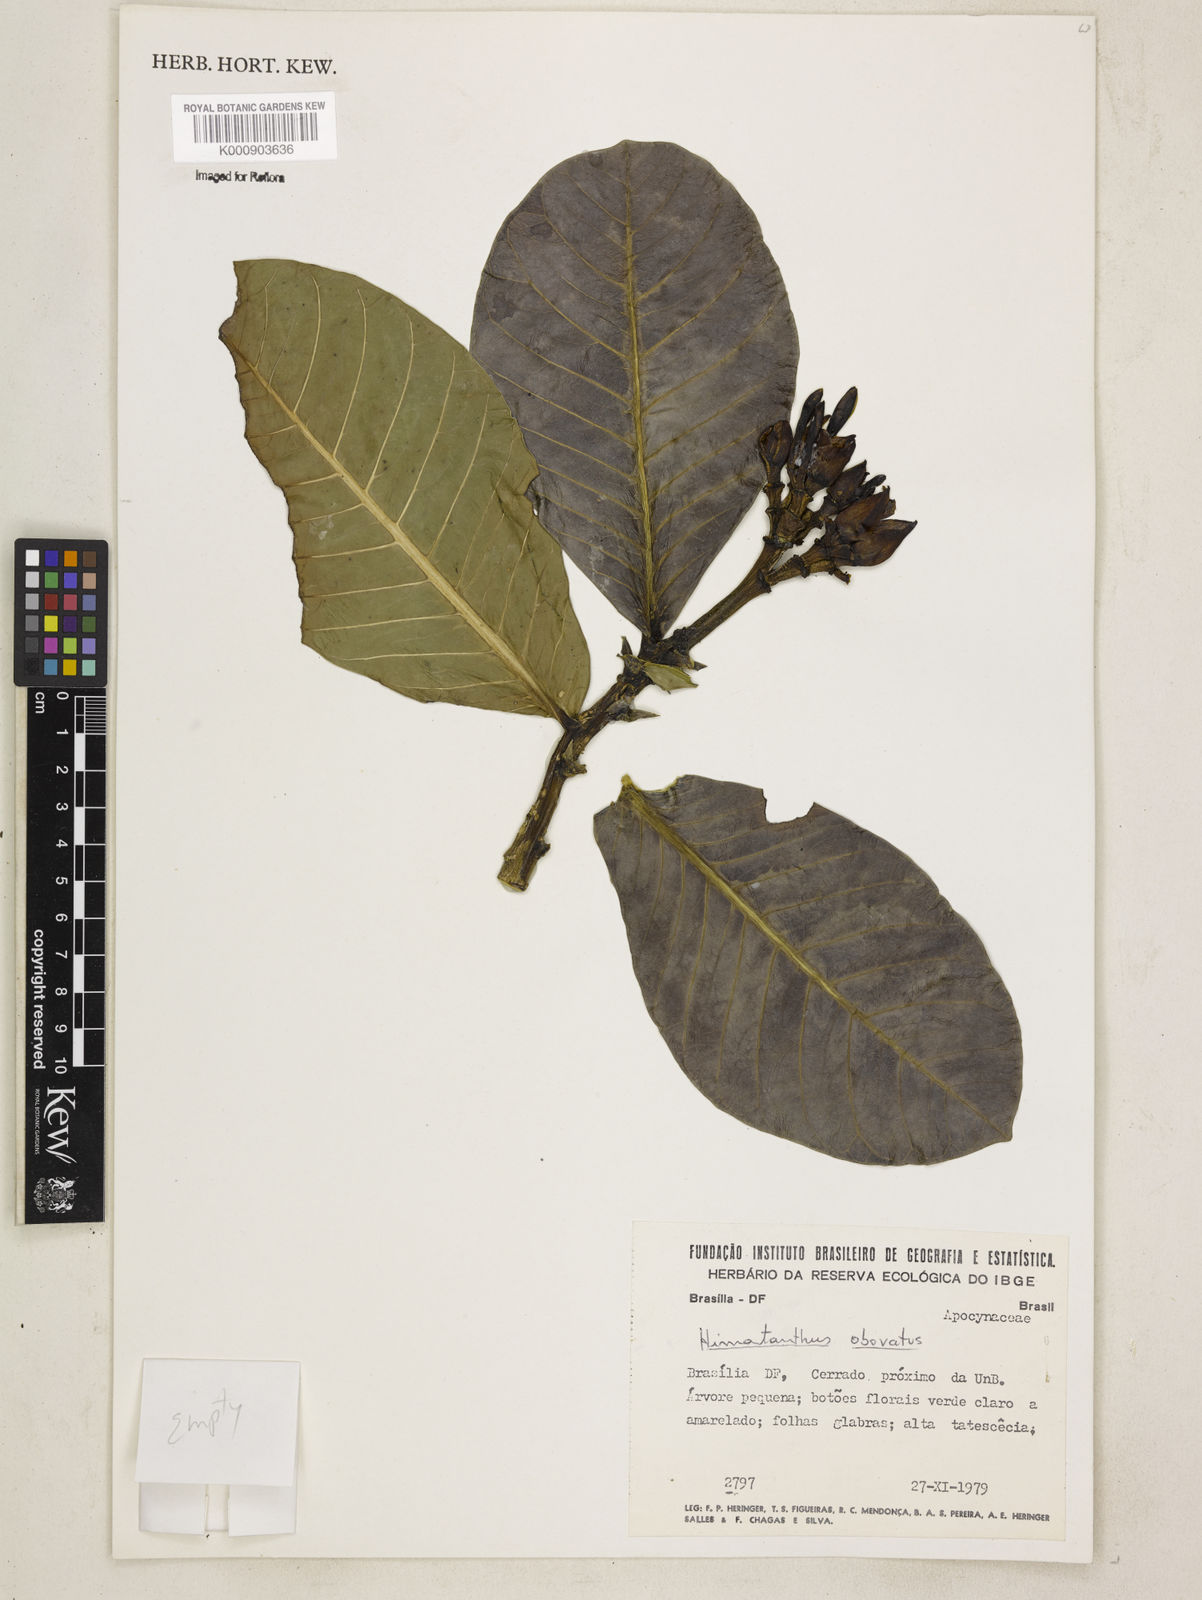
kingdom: Plantae
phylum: Tracheophyta
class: Magnoliopsida
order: Gentianales
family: Apocynaceae
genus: Himatanthus
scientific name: Himatanthus
